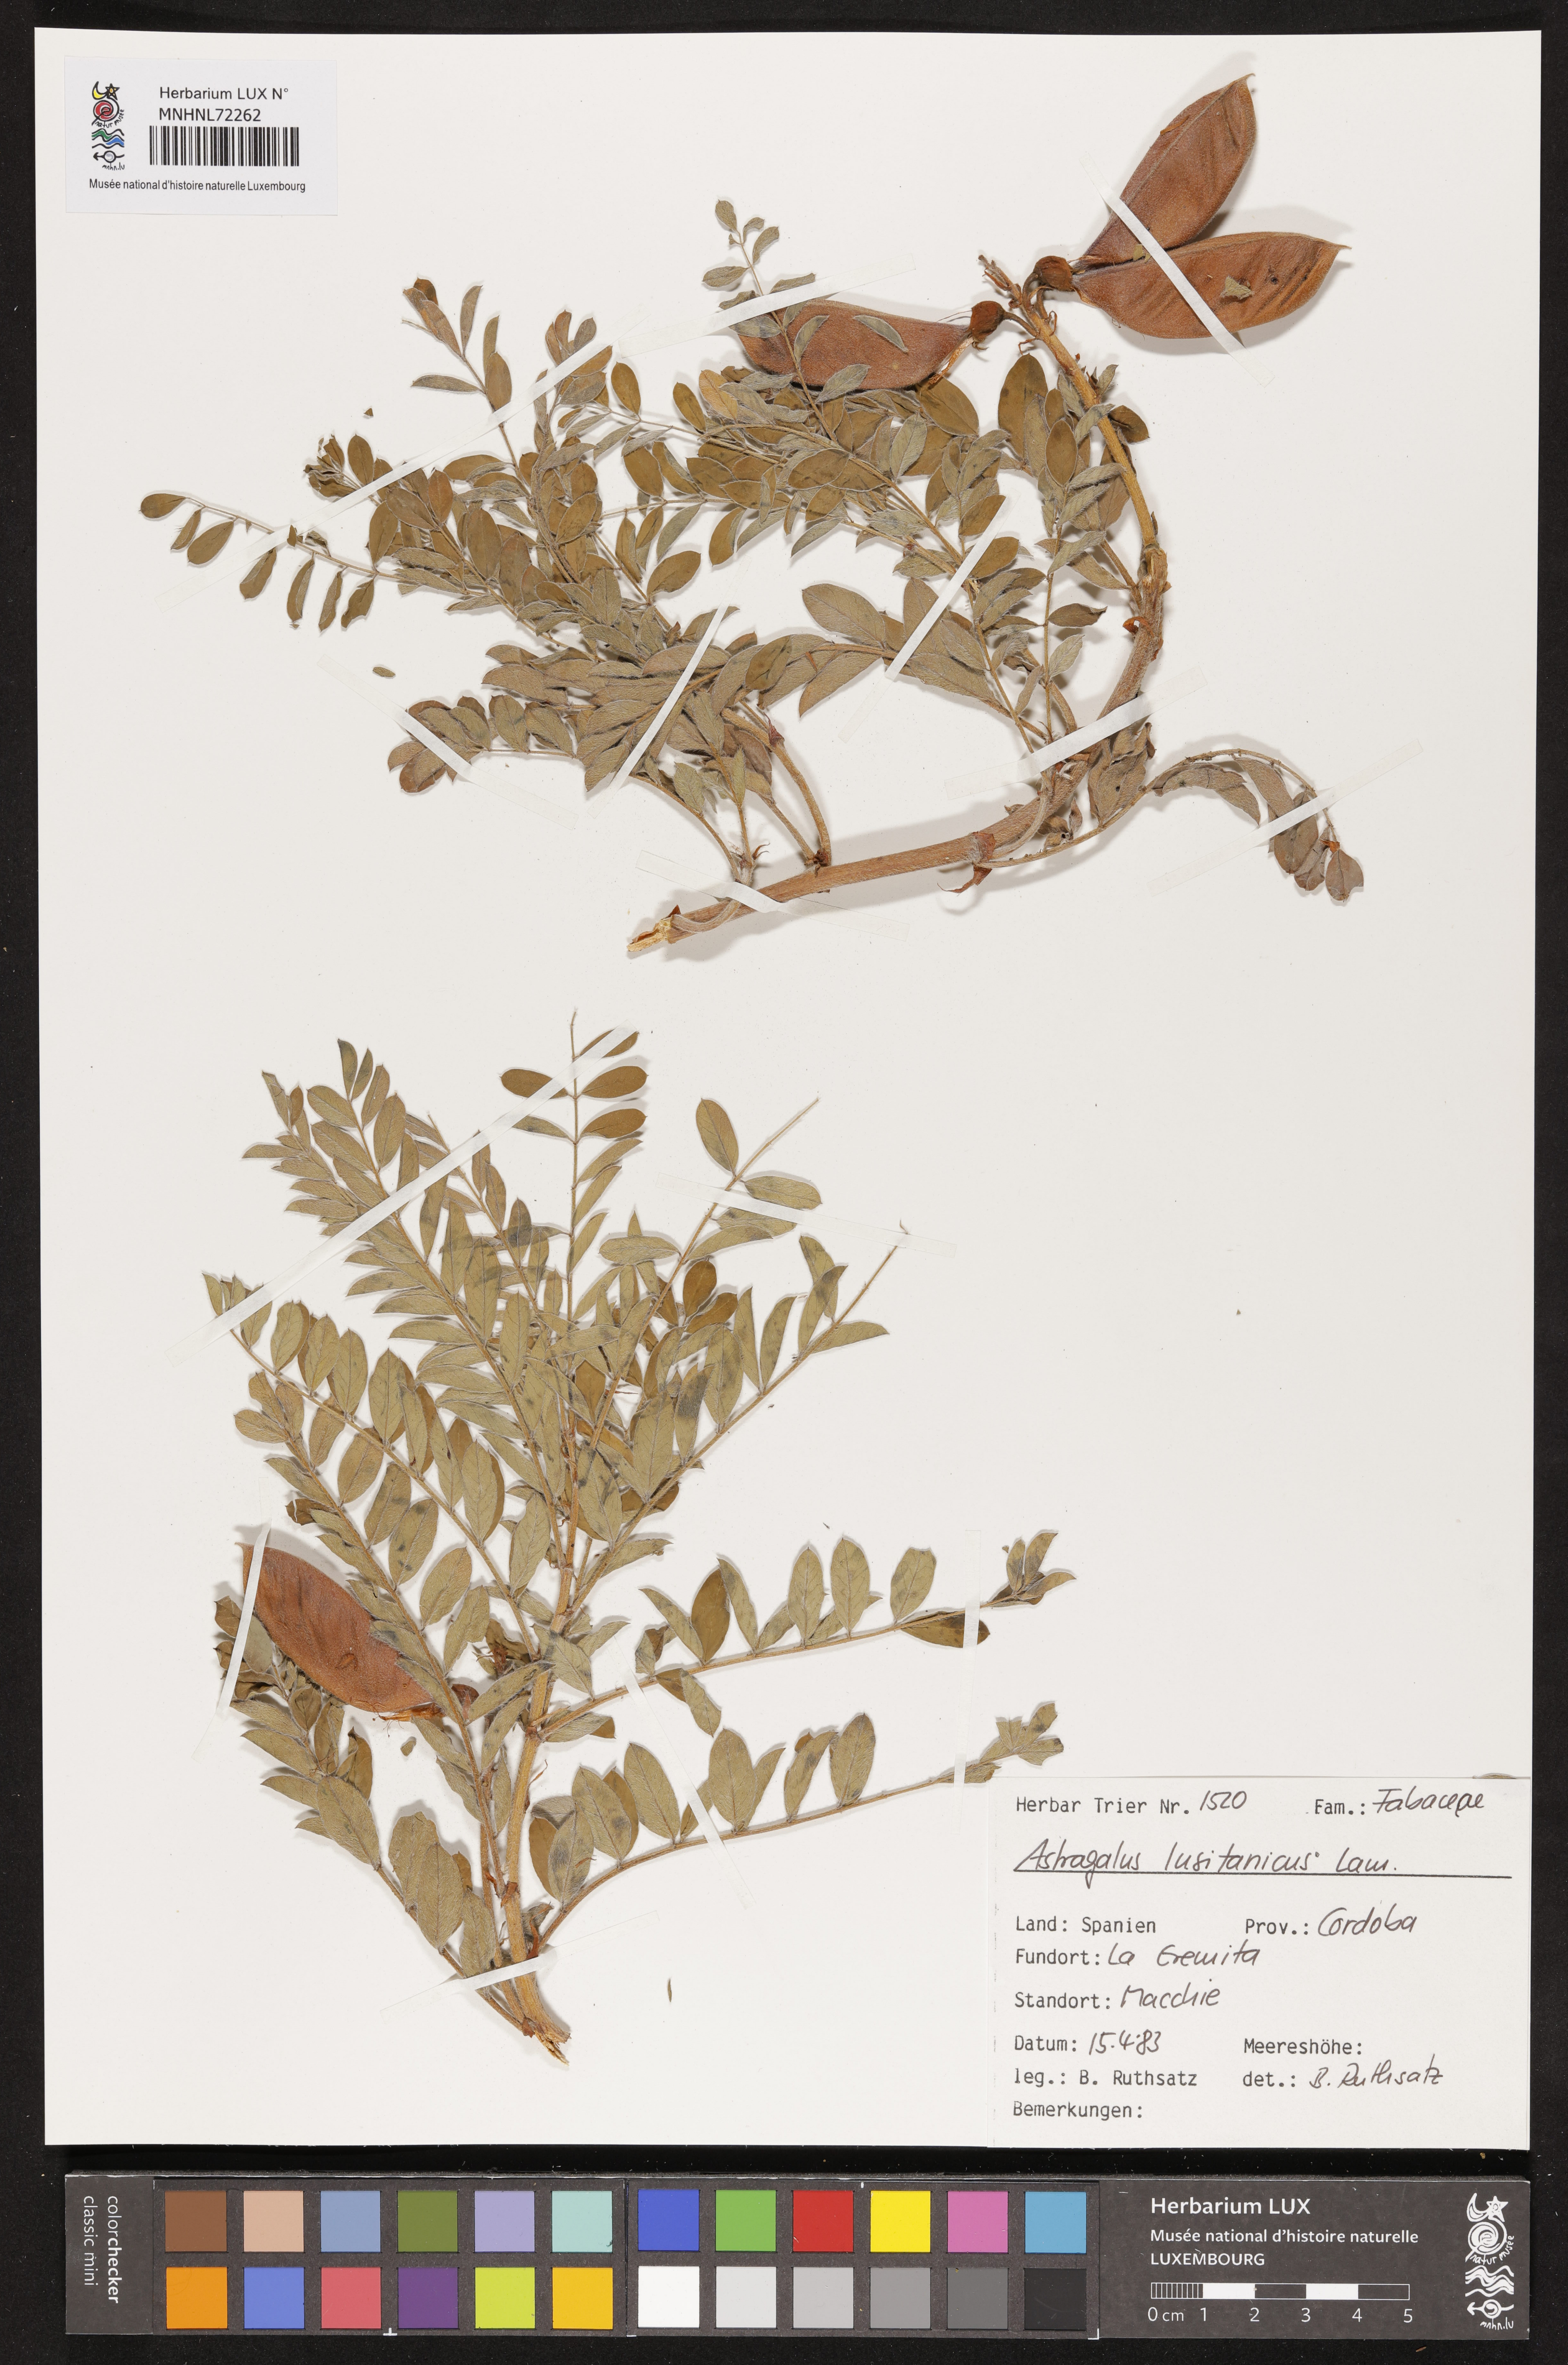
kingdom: Plantae
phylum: Tracheophyta
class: Magnoliopsida
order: Fabales
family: Fabaceae
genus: Erophaca
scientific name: Erophaca baetica
